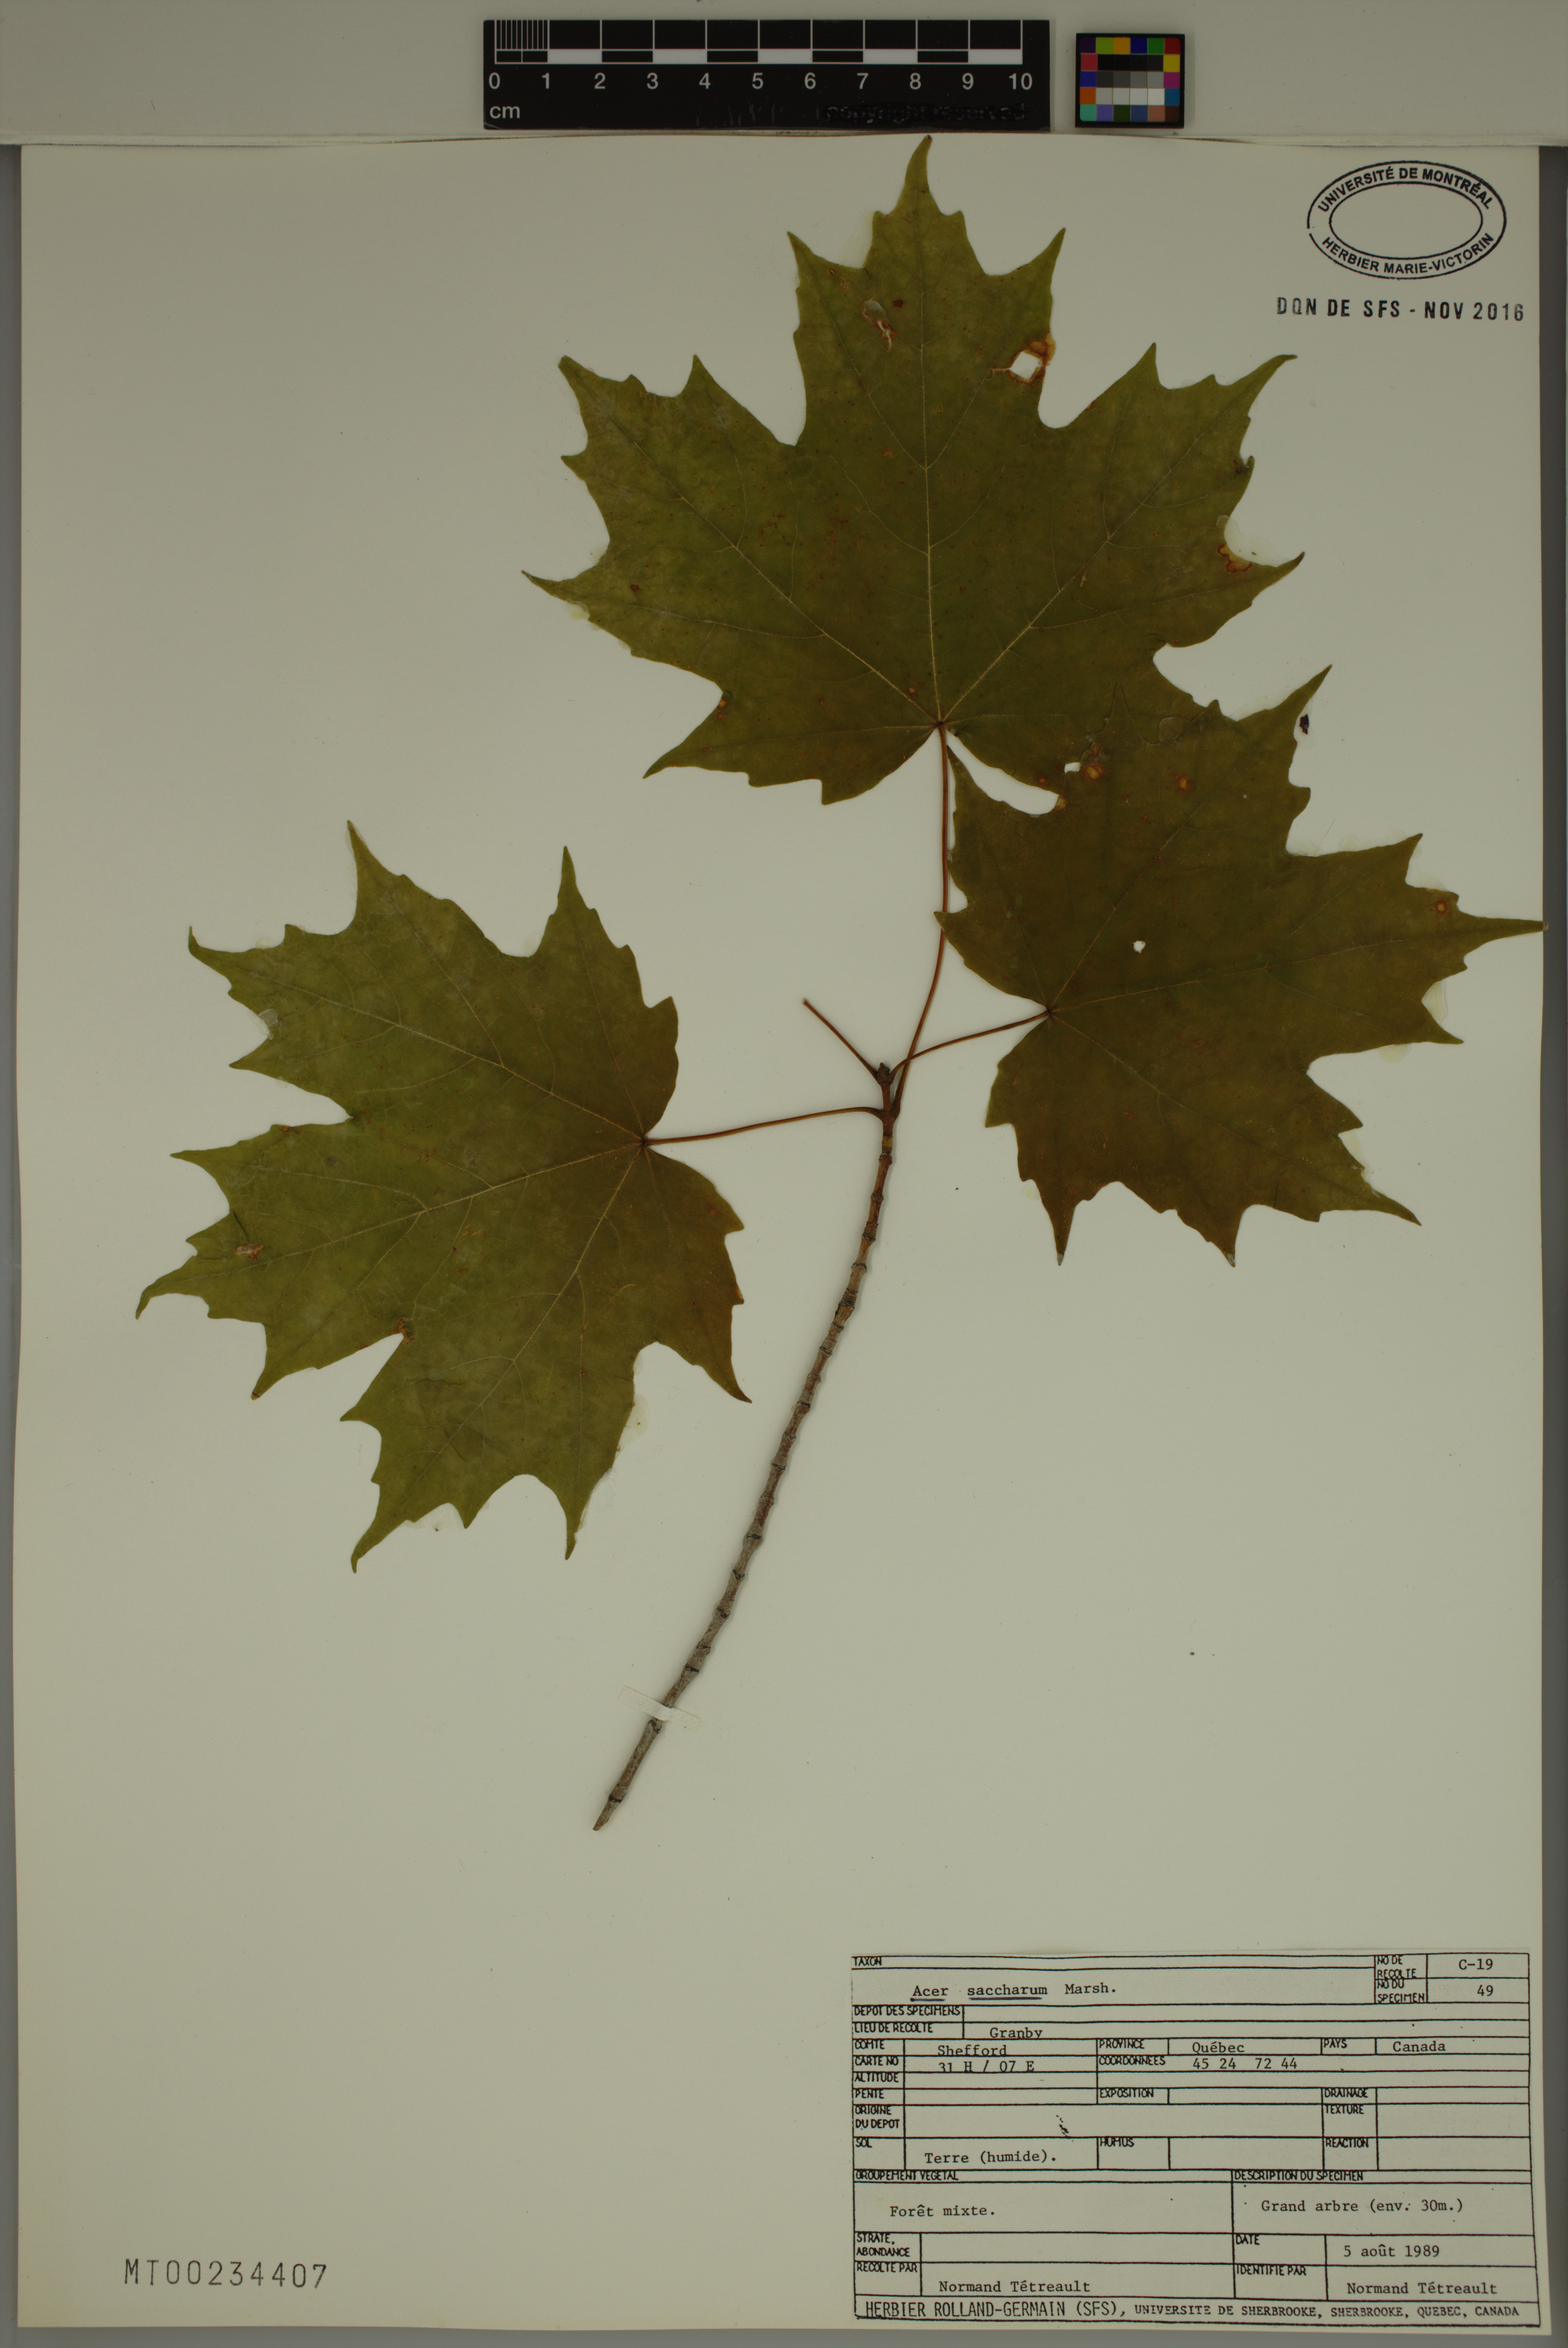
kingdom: Plantae
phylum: Tracheophyta
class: Magnoliopsida
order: Sapindales
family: Sapindaceae
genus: Acer
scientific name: Acer saccharum
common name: Sugar maple
